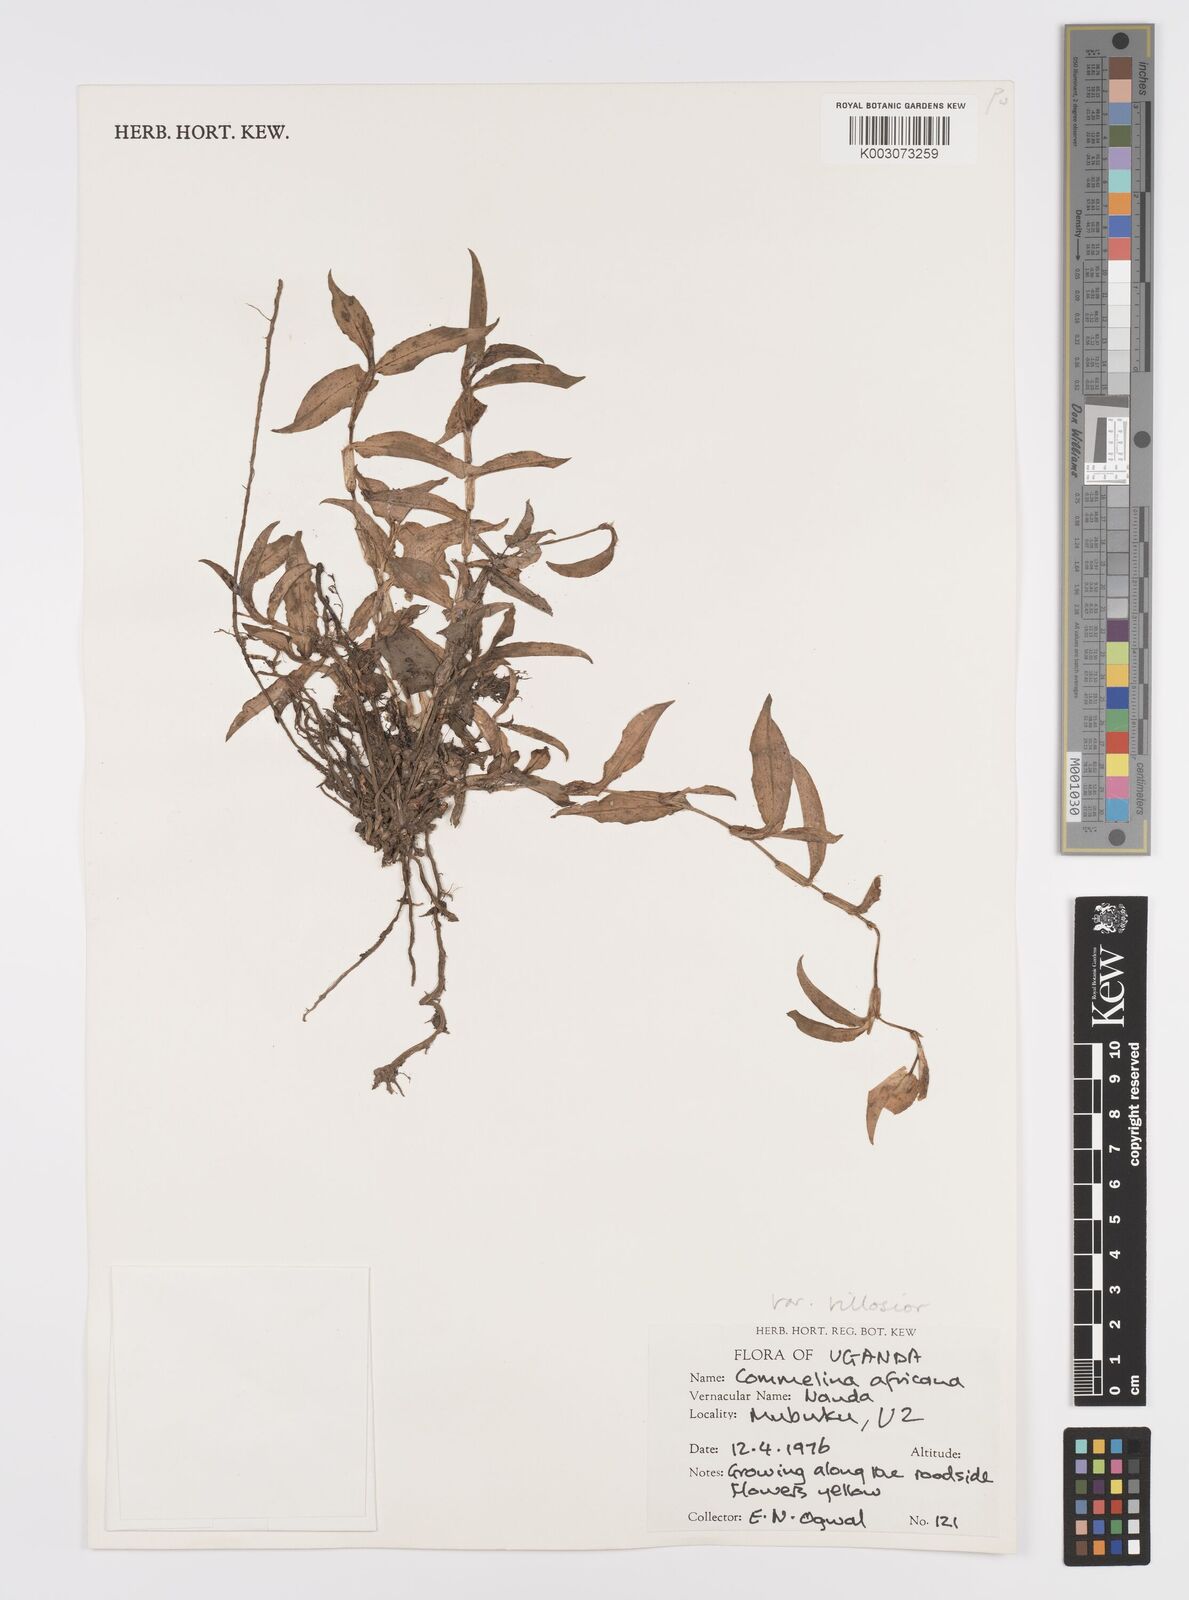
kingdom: Plantae
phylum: Tracheophyta
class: Liliopsida
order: Commelinales
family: Commelinaceae
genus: Commelina
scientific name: Commelina africana
